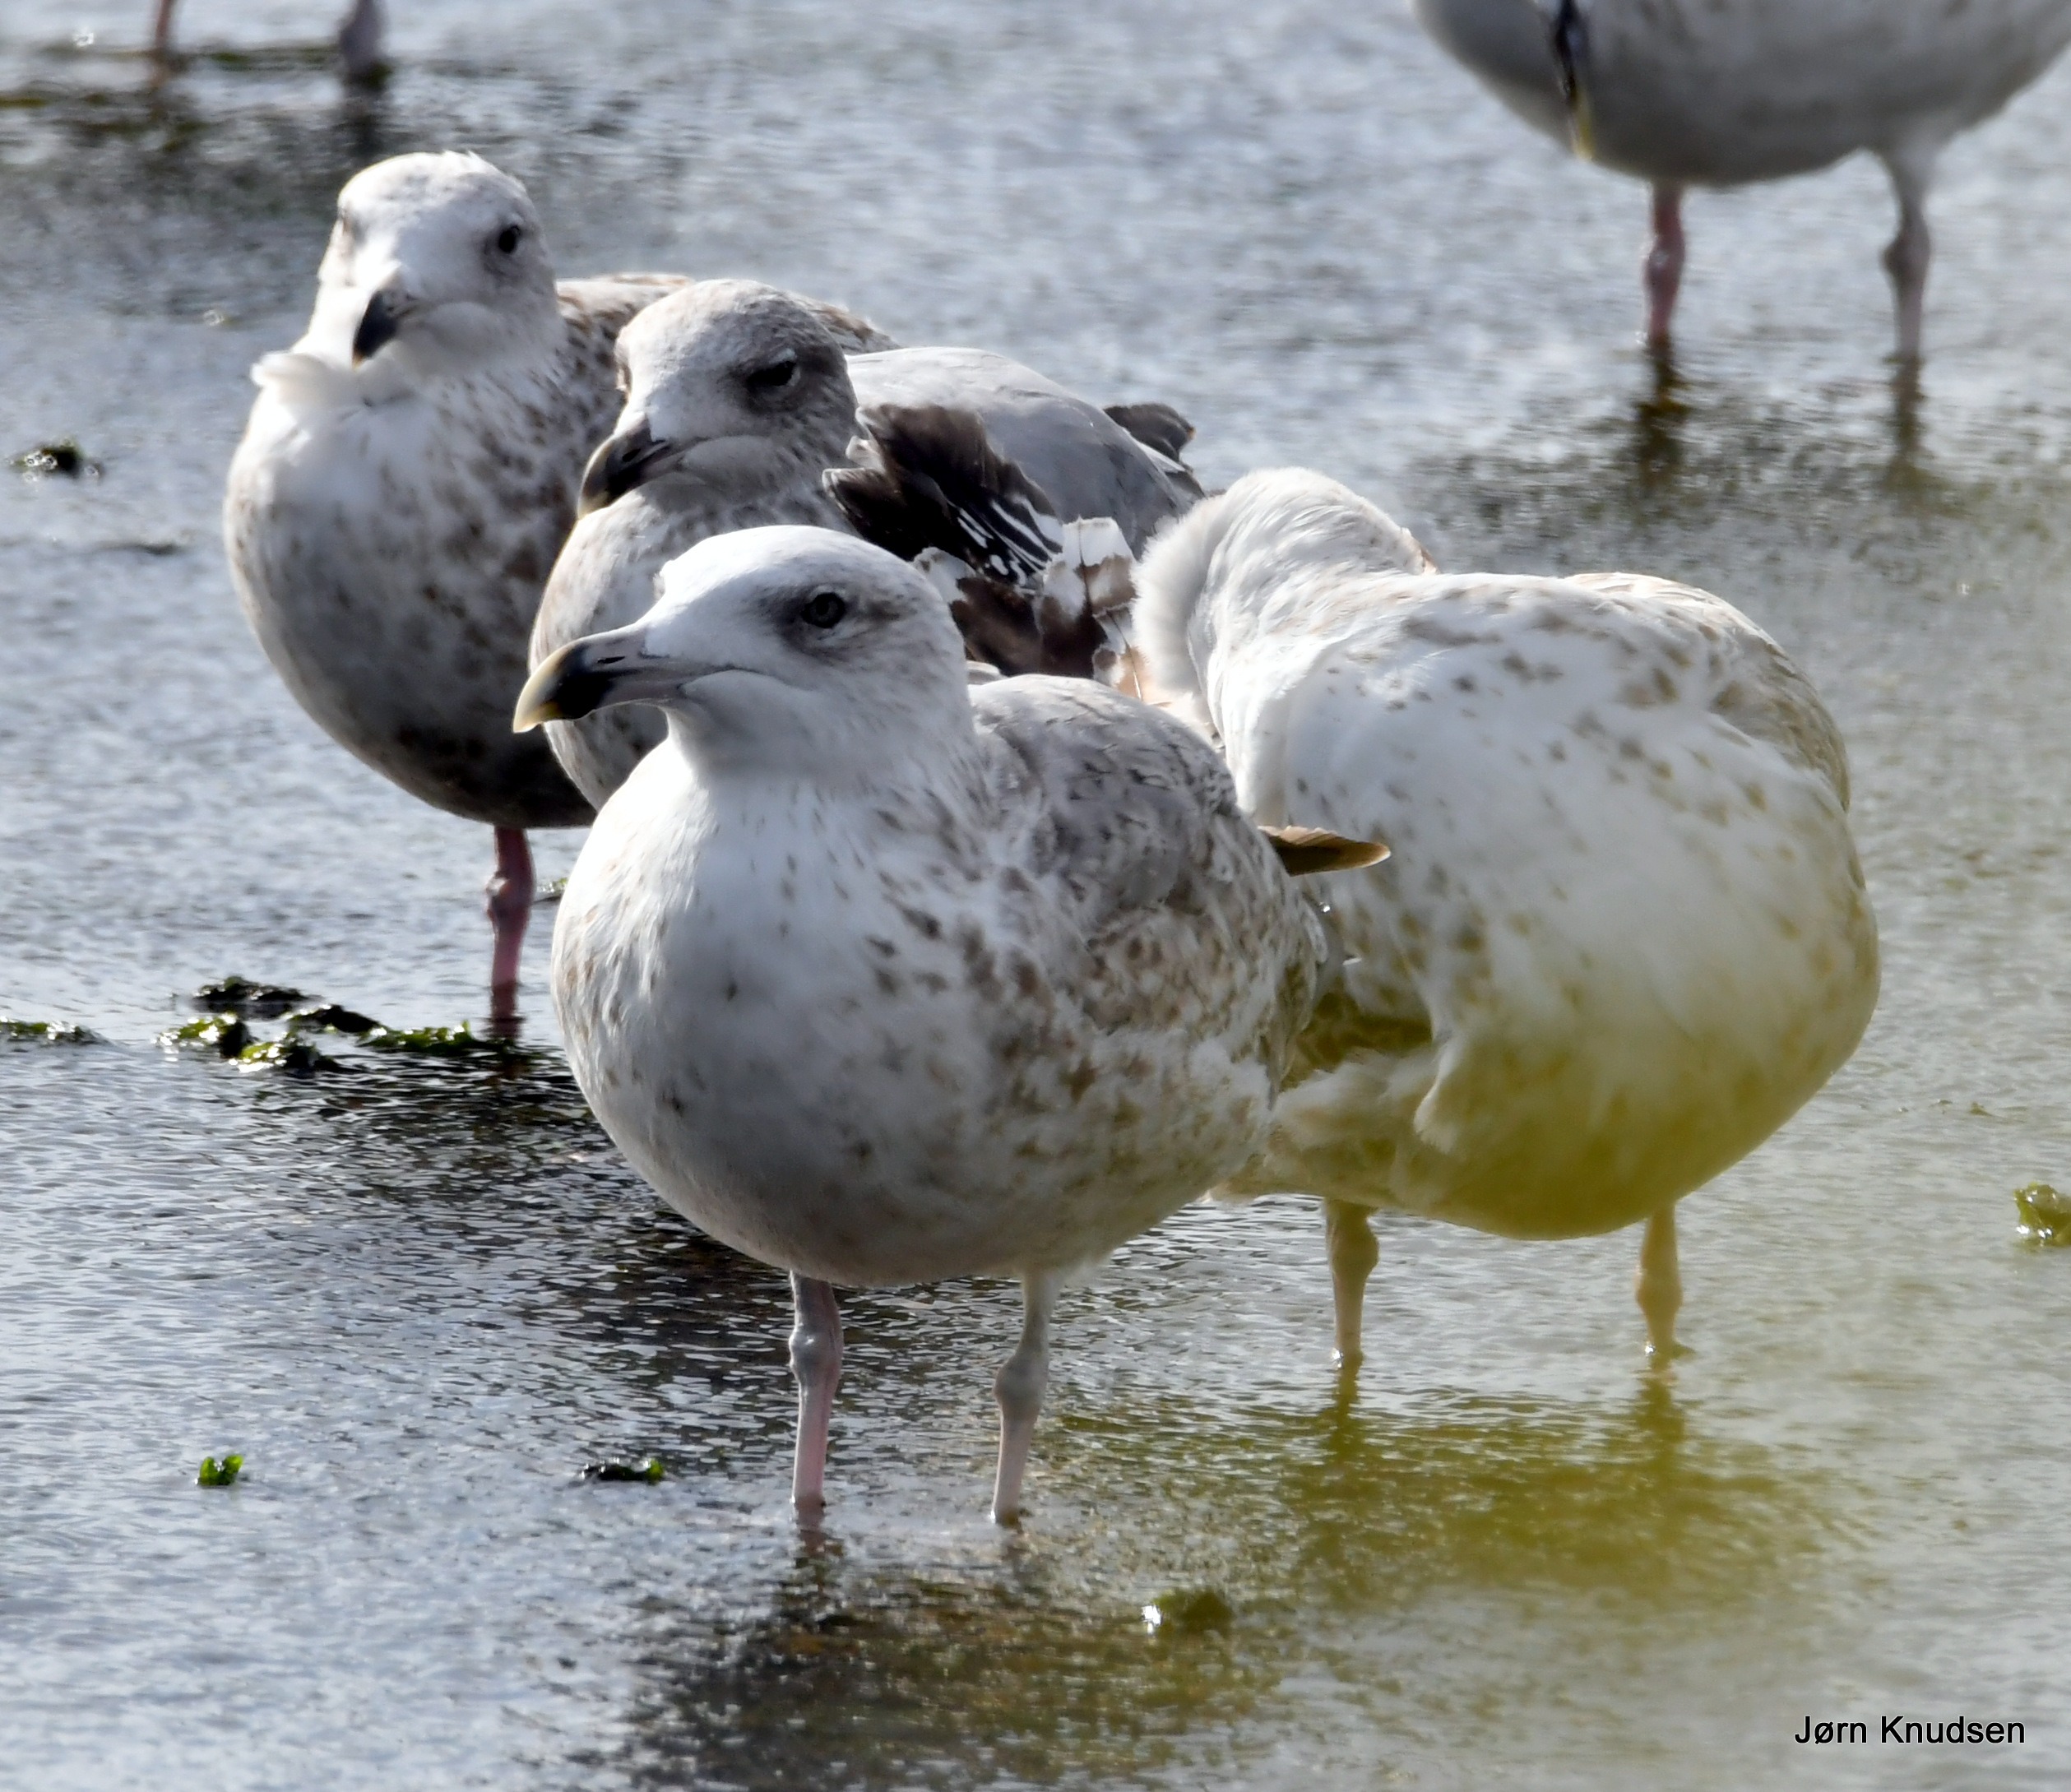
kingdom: Animalia
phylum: Chordata
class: Aves
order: Charadriiformes
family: Laridae
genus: Larus
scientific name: Larus argentatus
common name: Sølvmåge
